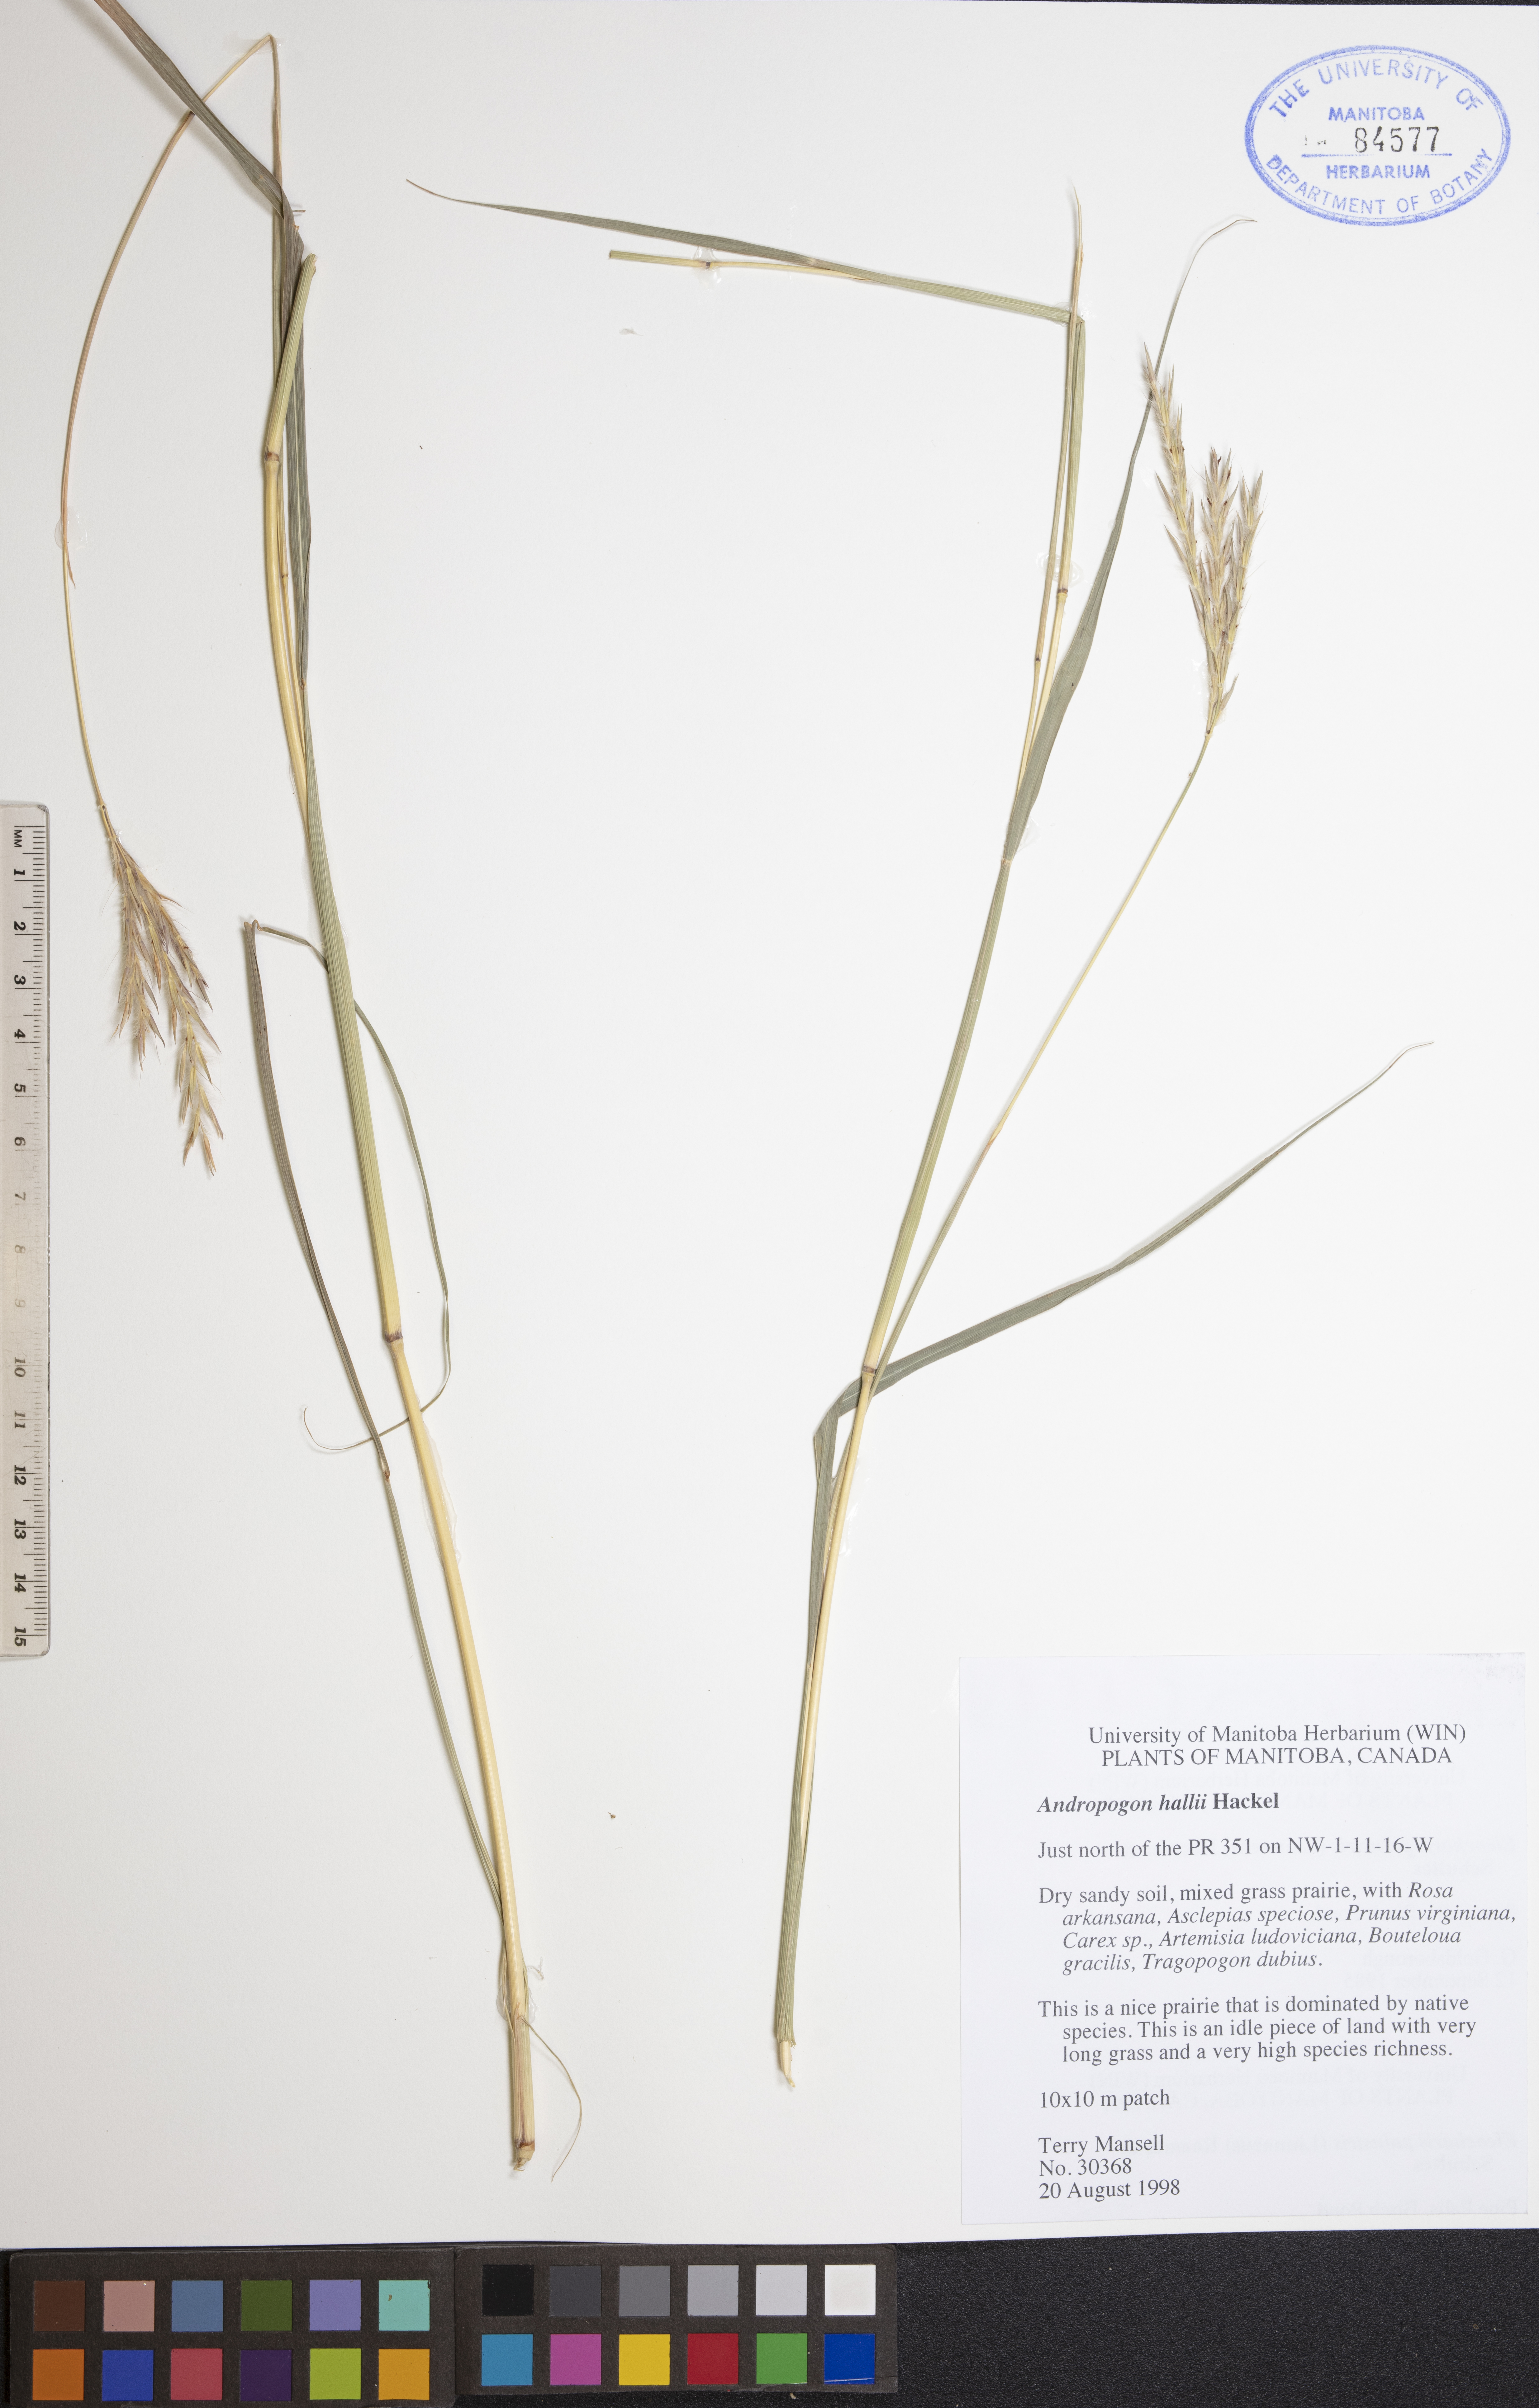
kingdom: Plantae
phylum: Tracheophyta
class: Liliopsida
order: Poales
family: Poaceae
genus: Andropogon
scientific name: Andropogon hallii
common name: Sand bluestem
